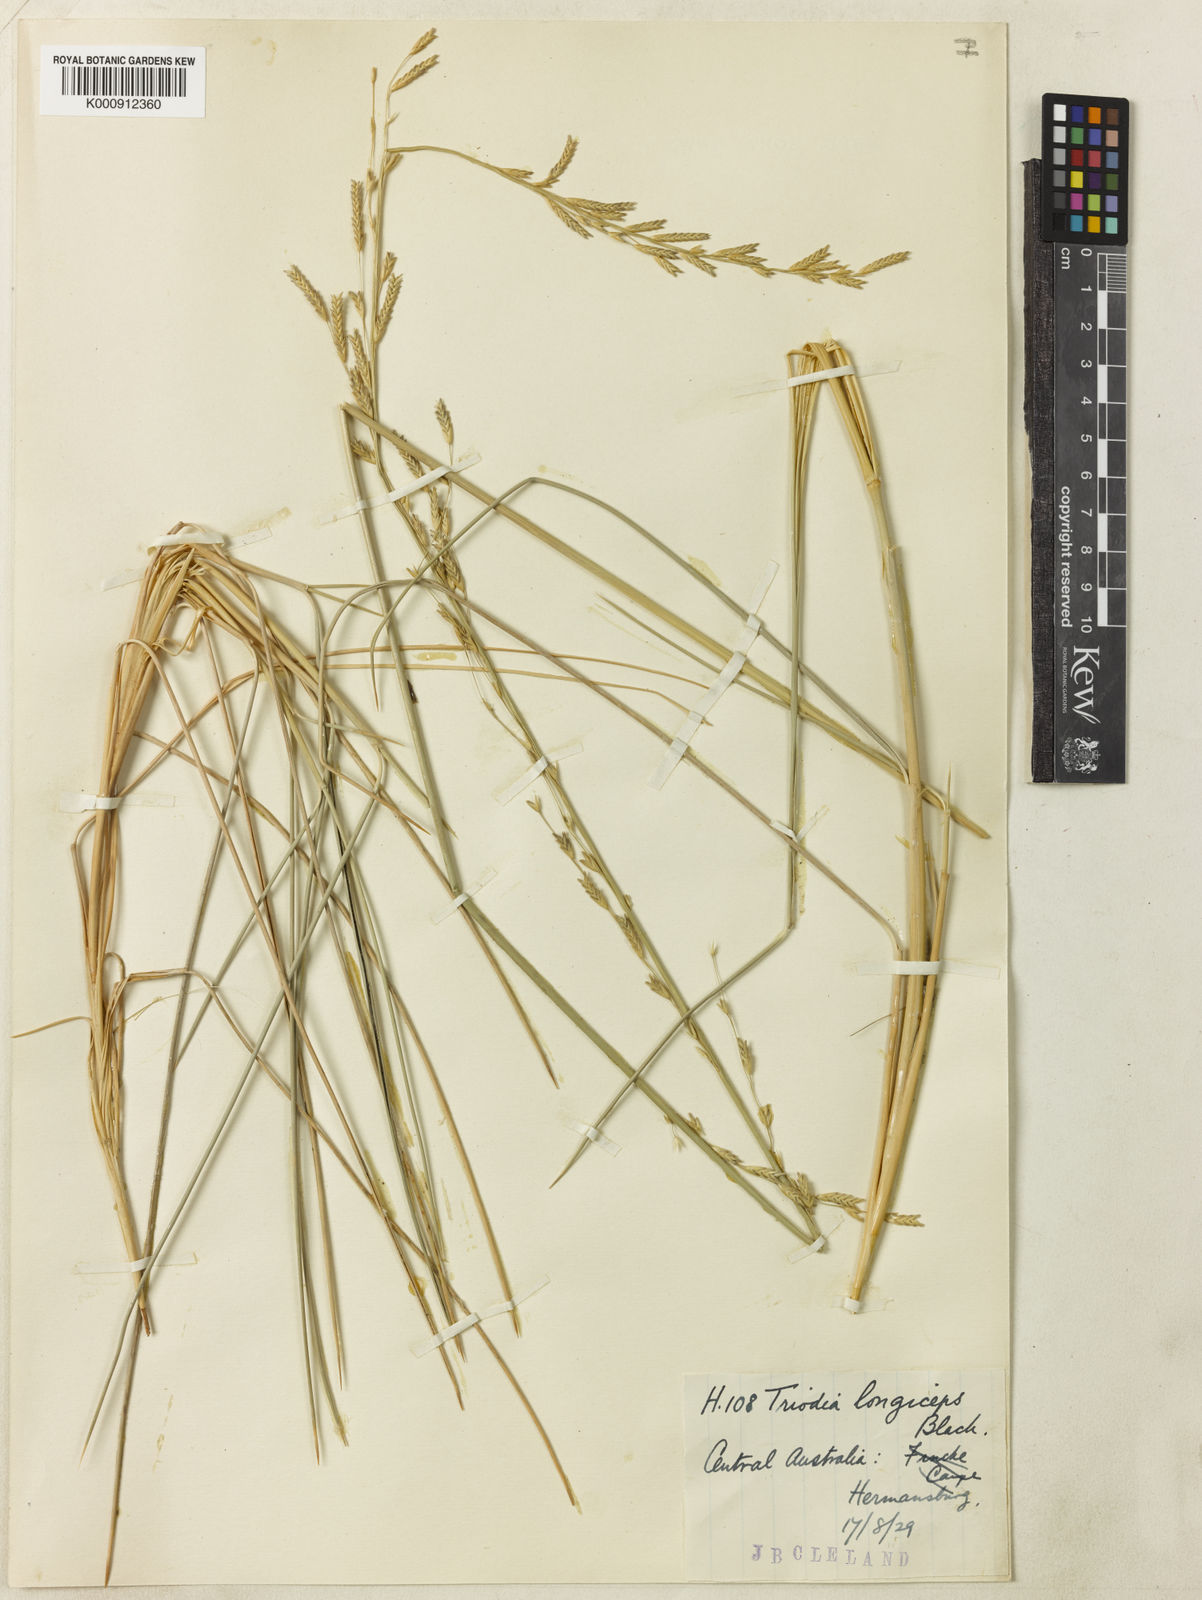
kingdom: Plantae
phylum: Tracheophyta
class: Liliopsida
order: Poales
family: Poaceae
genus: Triodia
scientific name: Triodia longiceps
